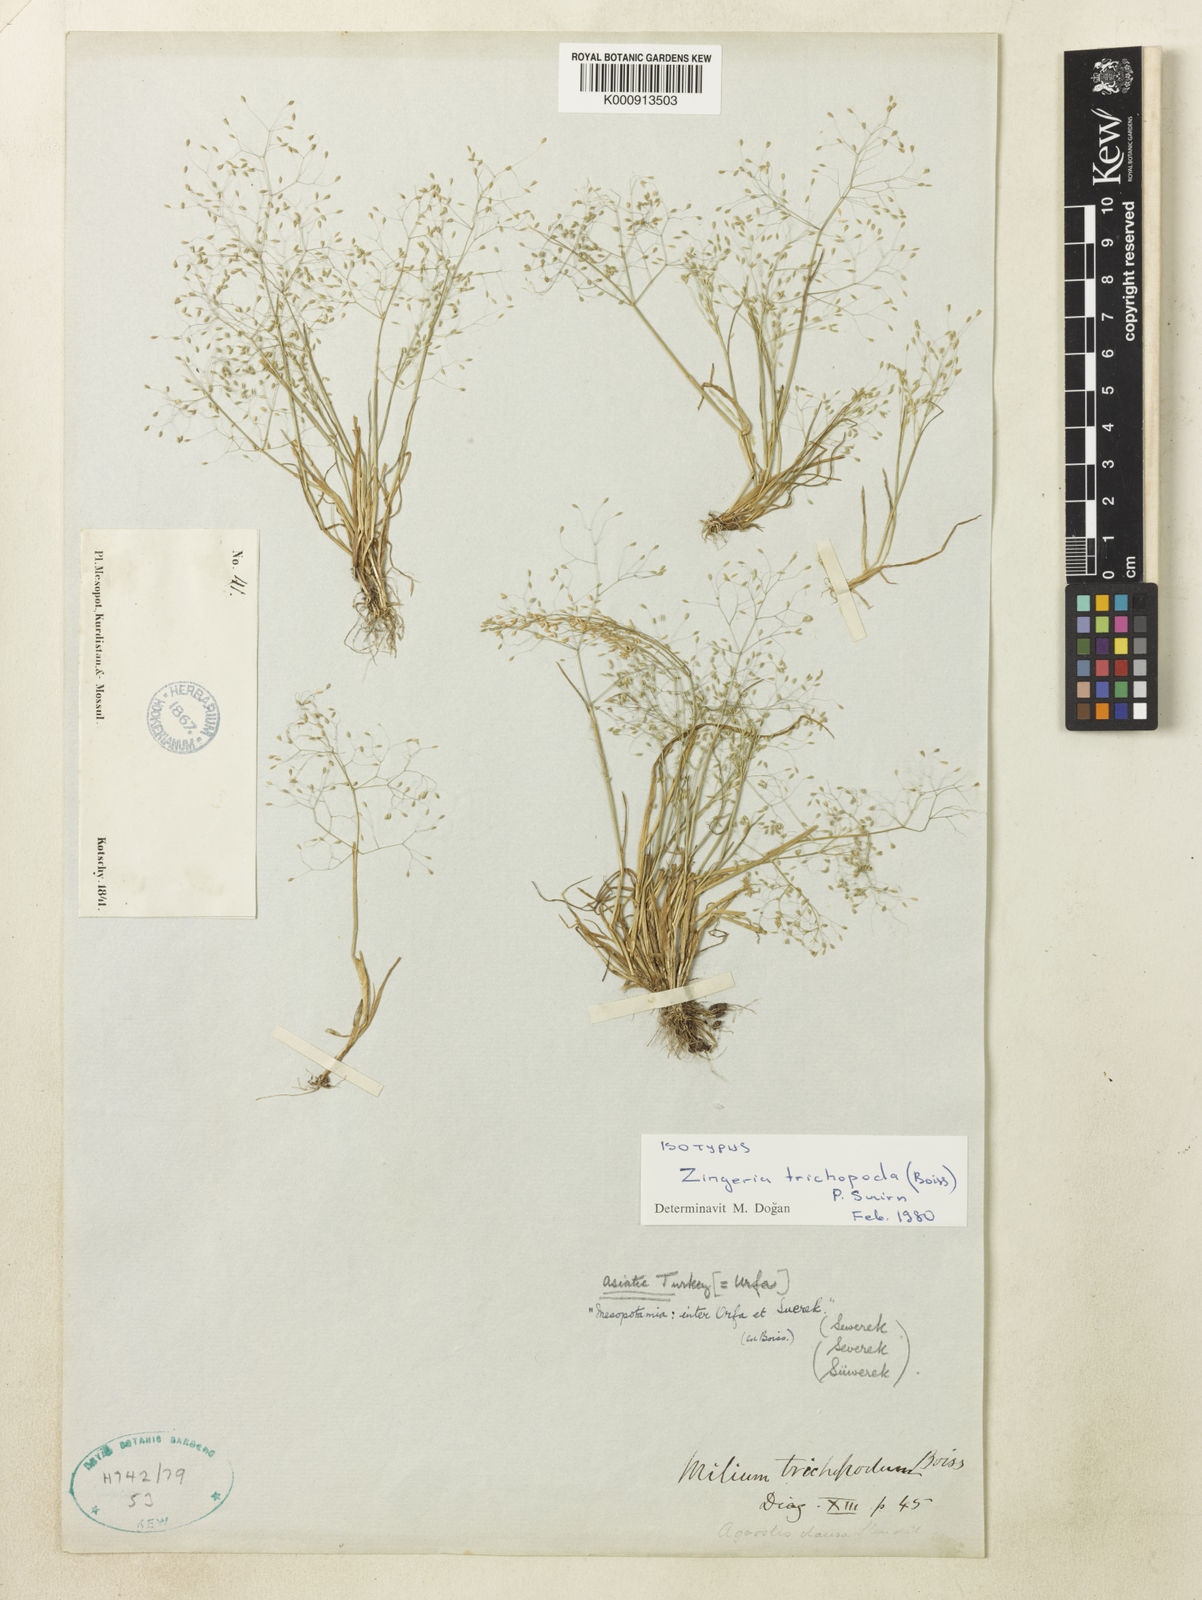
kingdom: Plantae
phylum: Tracheophyta
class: Liliopsida
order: Poales
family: Poaceae
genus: Colpodium
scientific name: Colpodium trichopodum
